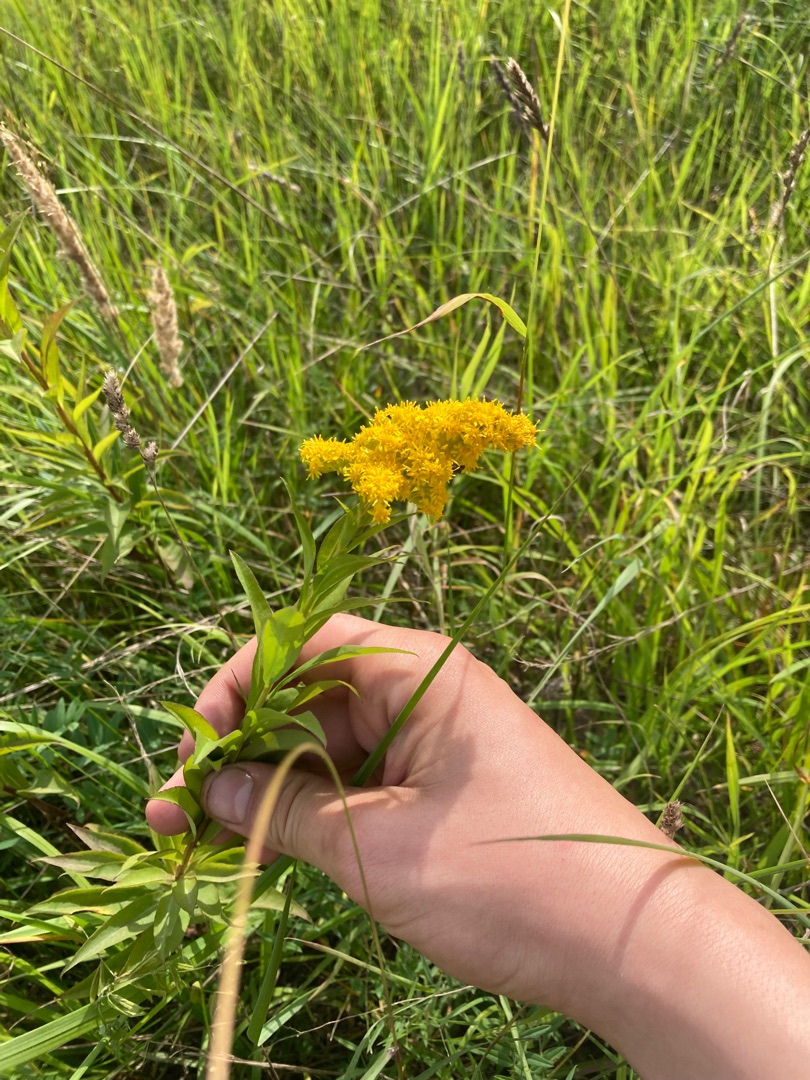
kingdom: Plantae
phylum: Tracheophyta
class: Magnoliopsida
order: Asterales
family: Asteraceae
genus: Solidago
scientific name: Solidago gigantea
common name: Sildig gyldenris
